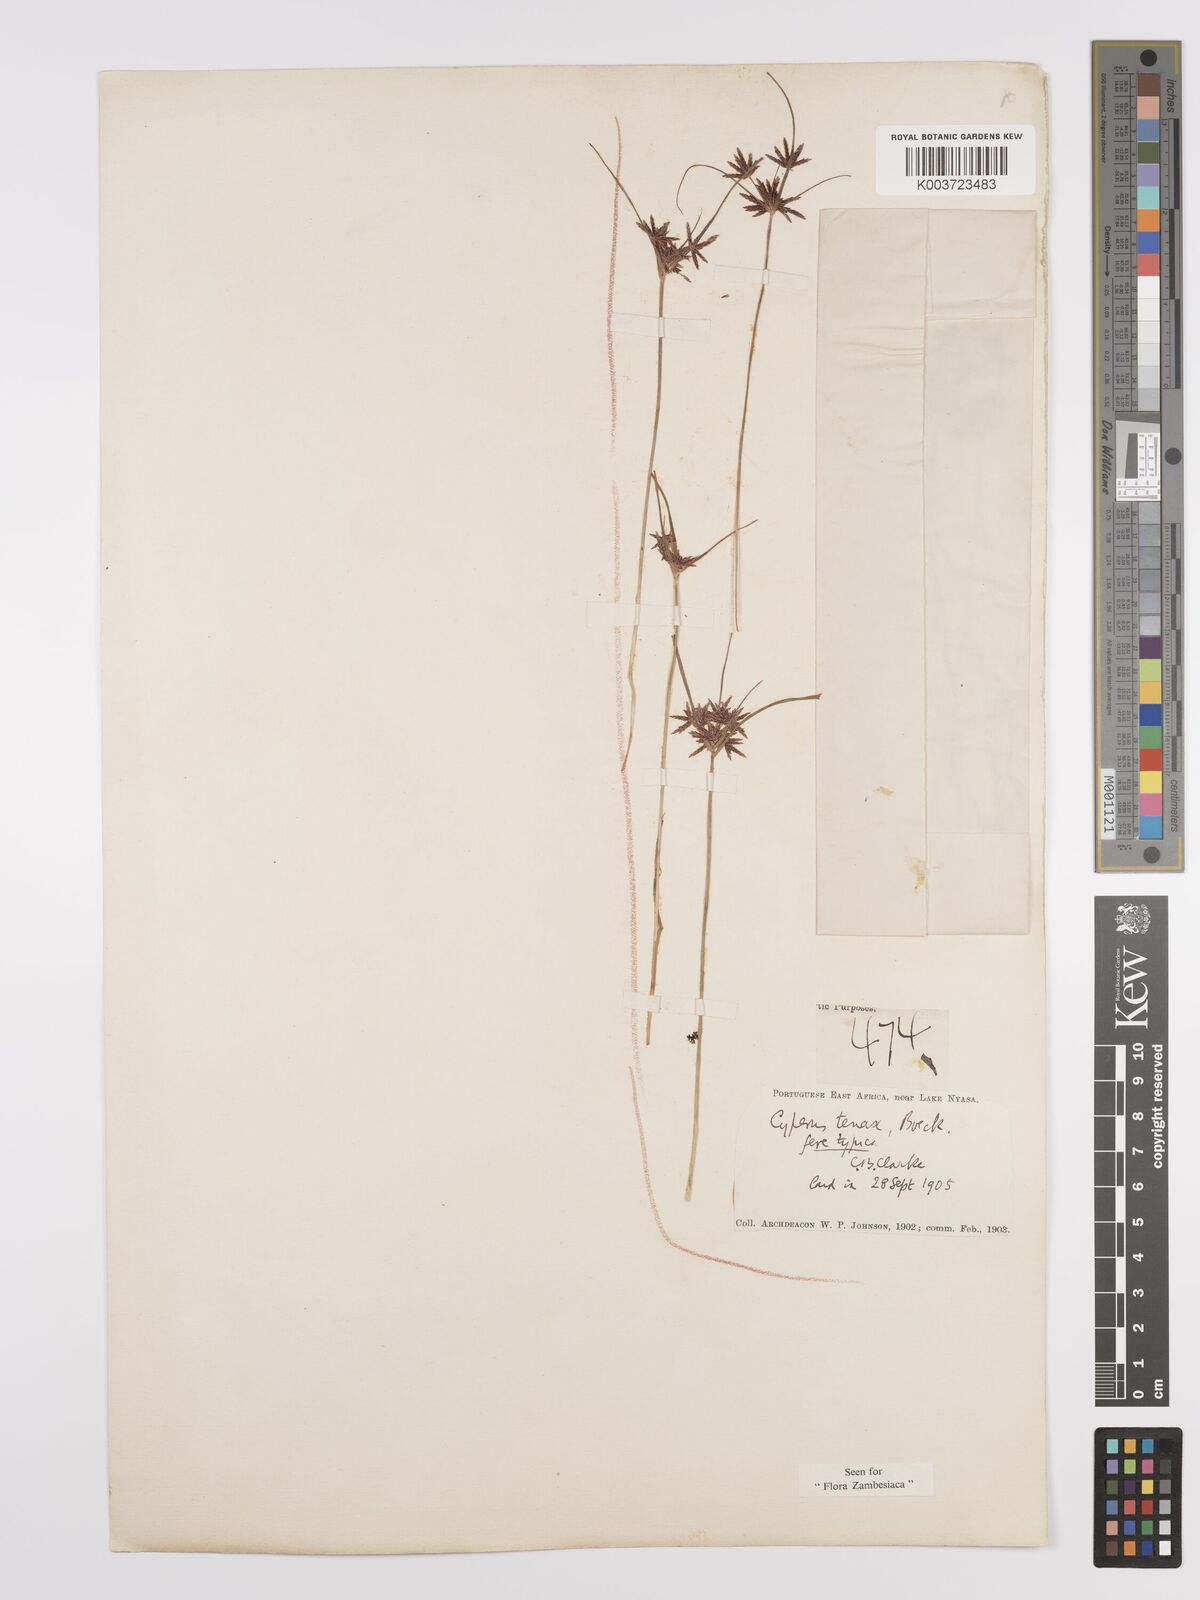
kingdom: Plantae
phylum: Tracheophyta
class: Liliopsida
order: Poales
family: Cyperaceae
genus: Cyperus
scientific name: Cyperus tenax
